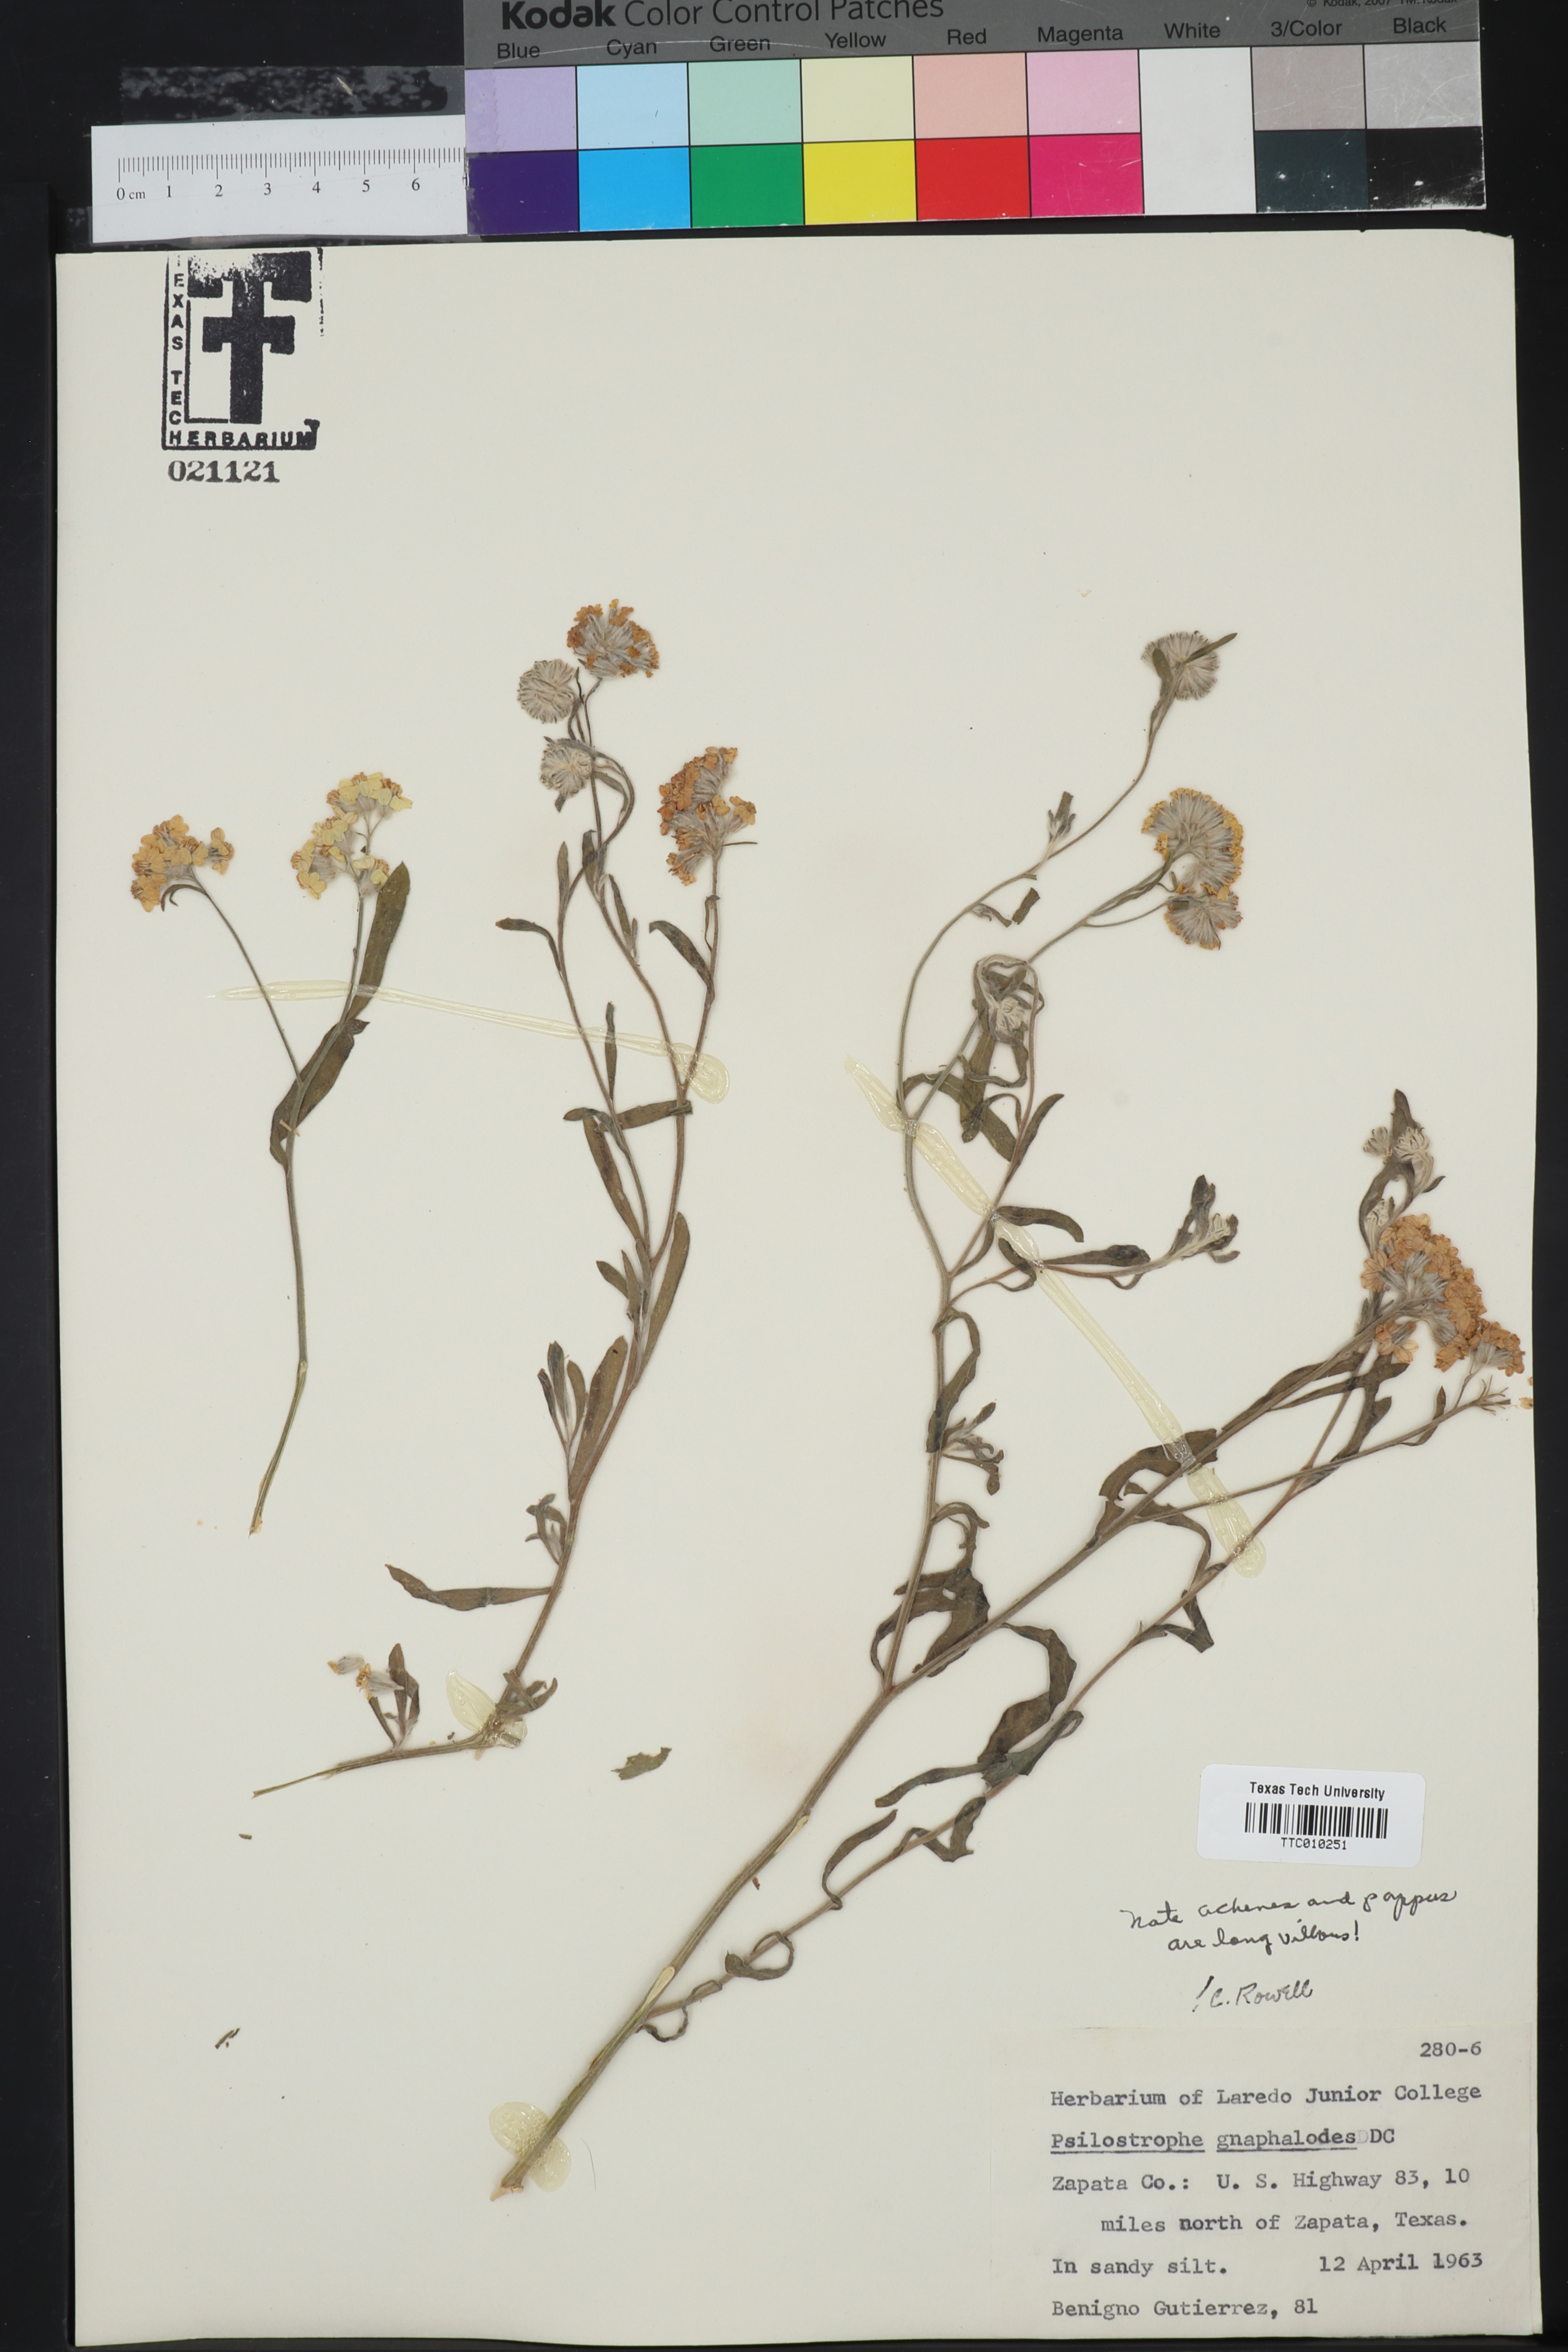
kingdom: Plantae
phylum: Tracheophyta
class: Magnoliopsida
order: Asterales
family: Asteraceae
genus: Psilostrophe
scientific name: Psilostrophe gnaphalioides
